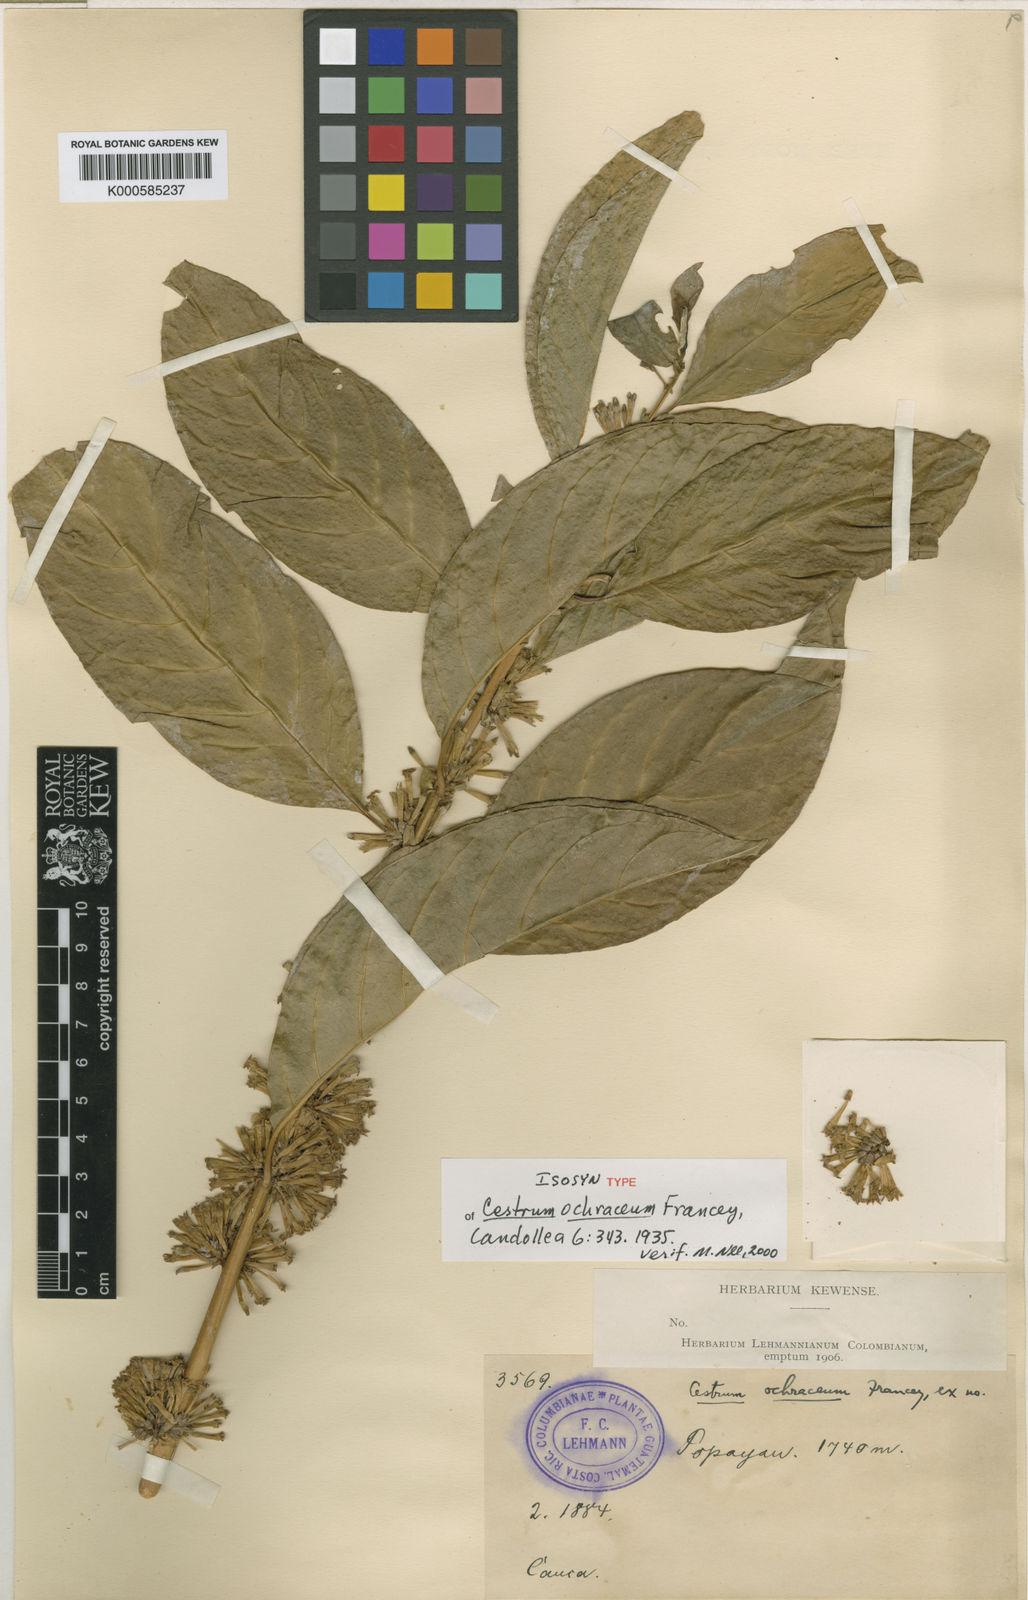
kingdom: Plantae
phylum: Tracheophyta
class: Magnoliopsida
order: Solanales
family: Solanaceae
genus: Cestrum
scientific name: Cestrum ochraceum
